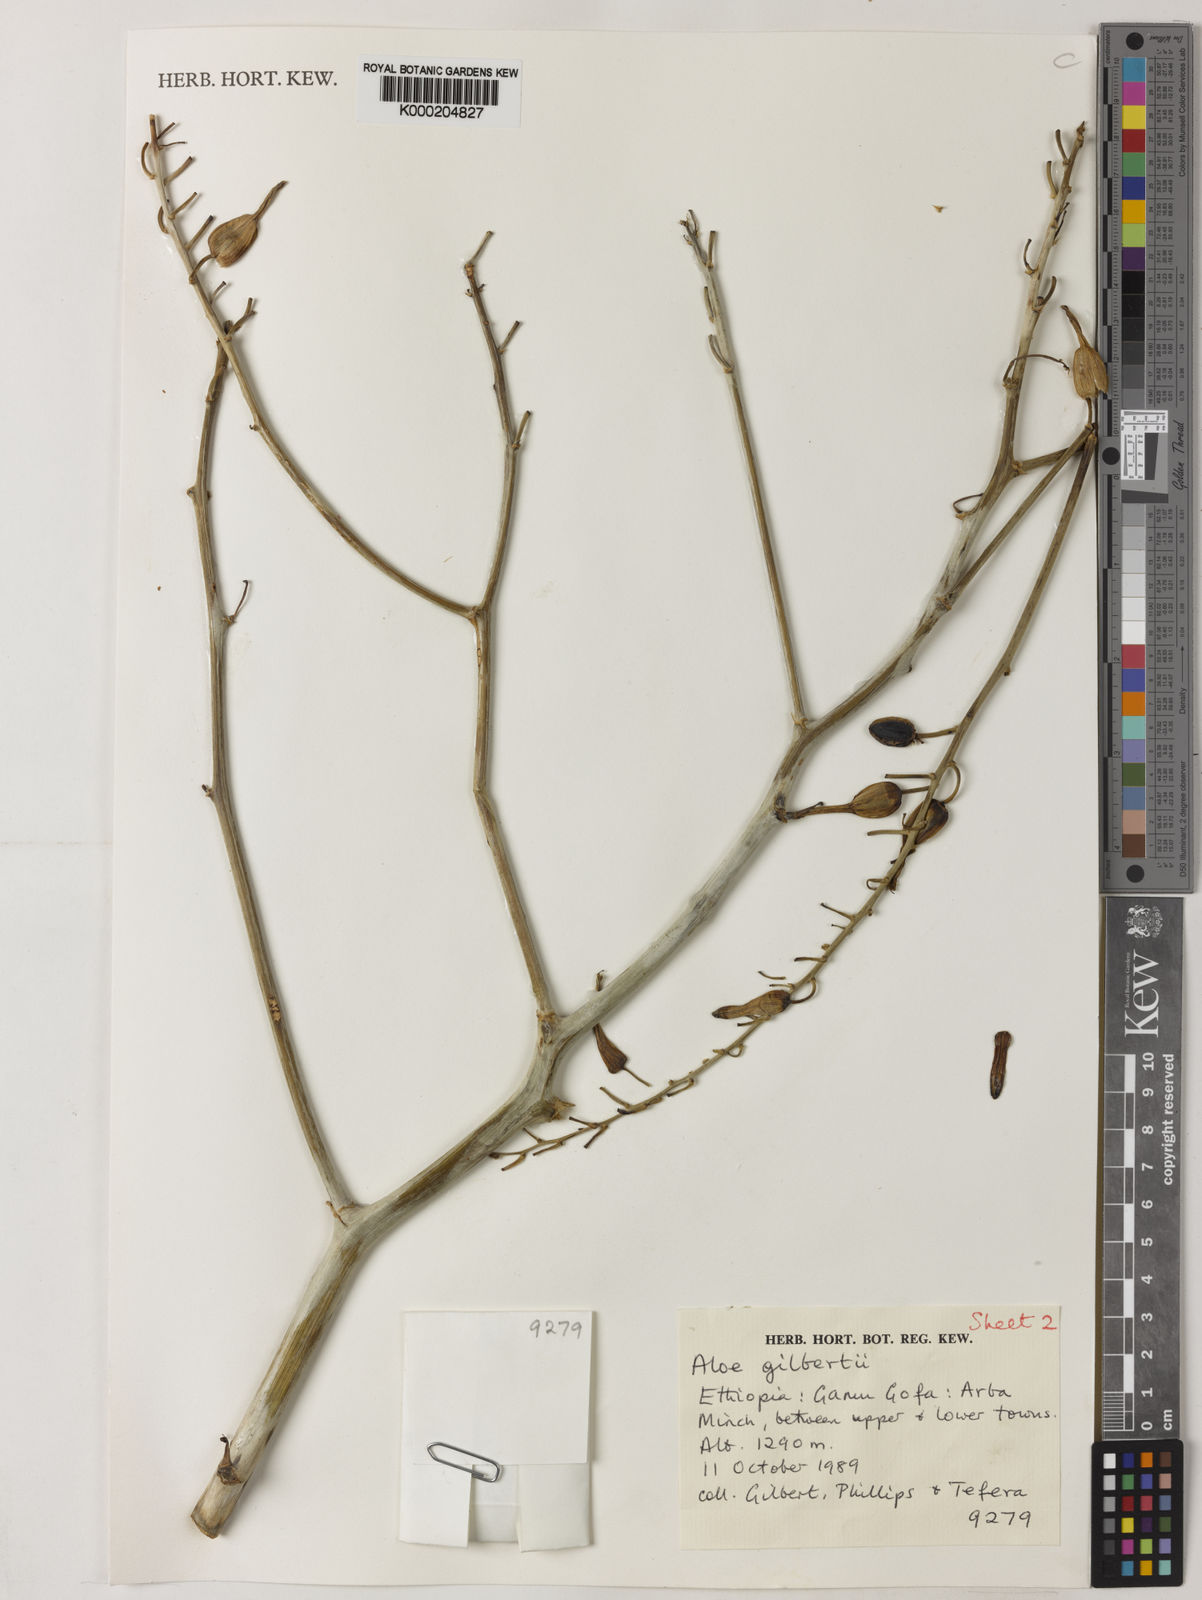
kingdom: Plantae
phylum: Tracheophyta
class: Liliopsida
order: Asparagales
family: Asphodelaceae
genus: Aloe
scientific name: Aloe gilbertii
